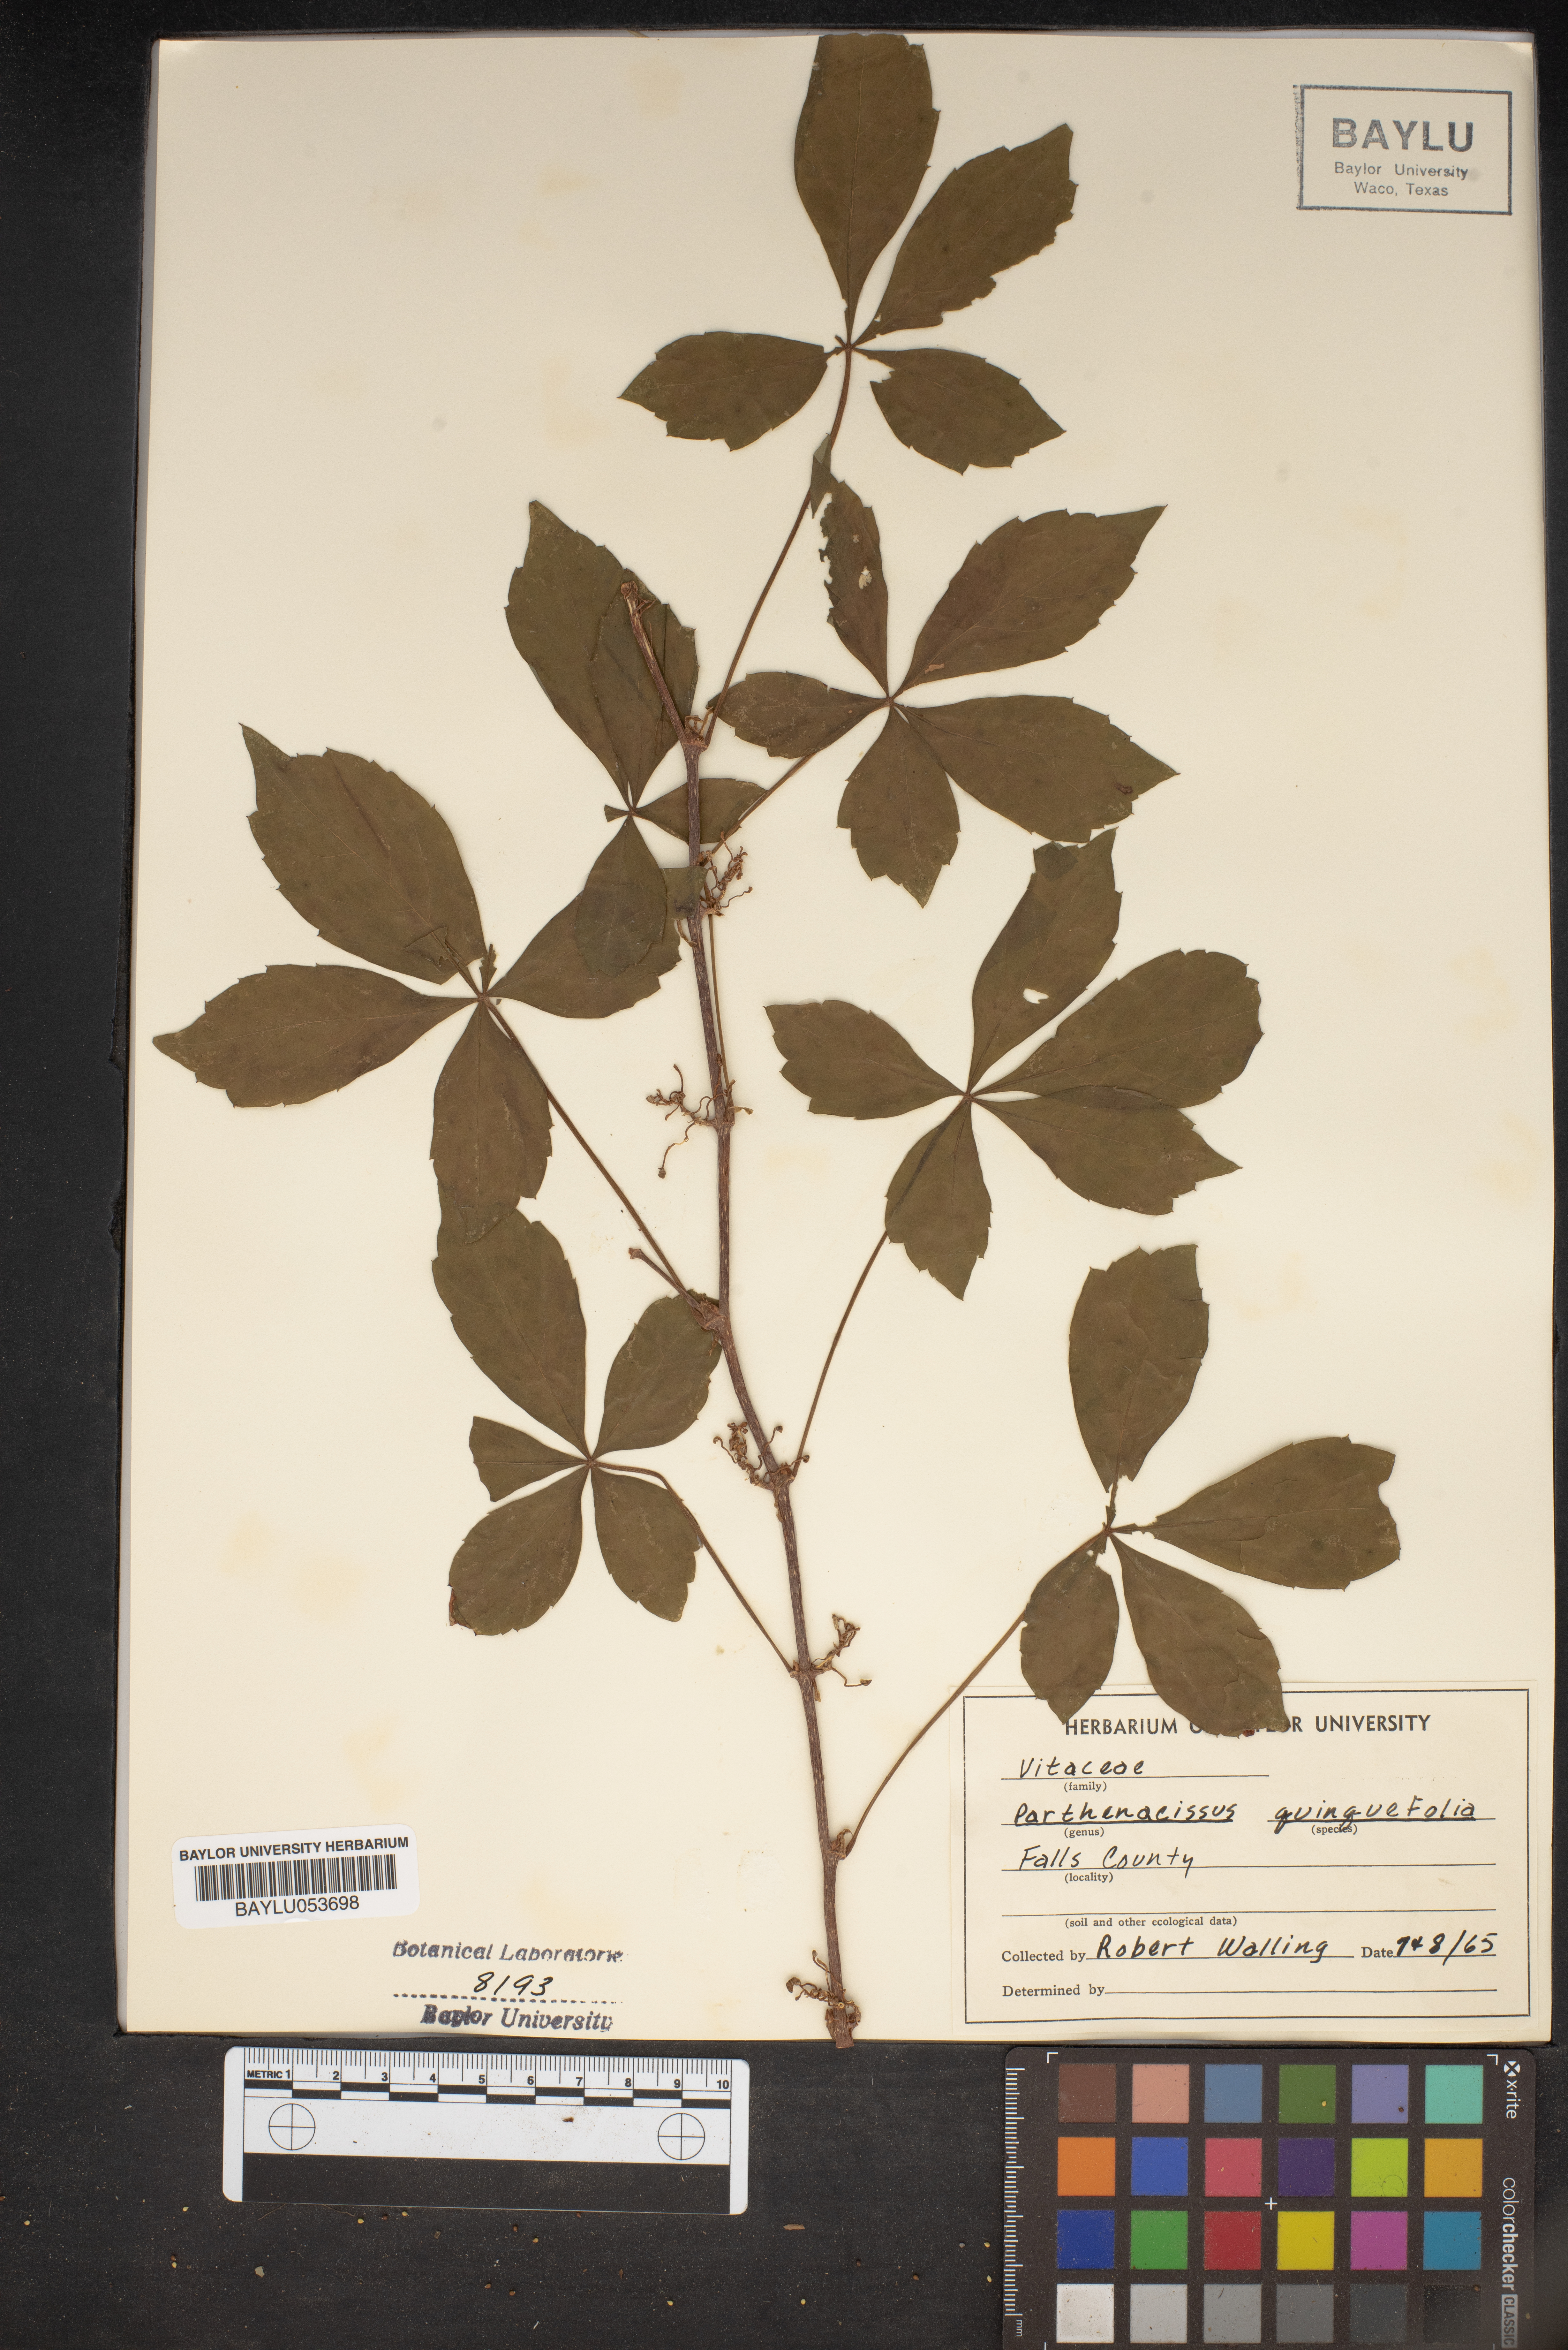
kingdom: Plantae
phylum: Tracheophyta
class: Magnoliopsida
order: Vitales
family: Vitaceae
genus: Parthenocissus
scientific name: Parthenocissus quinquefolia
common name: Virginia-creeper
